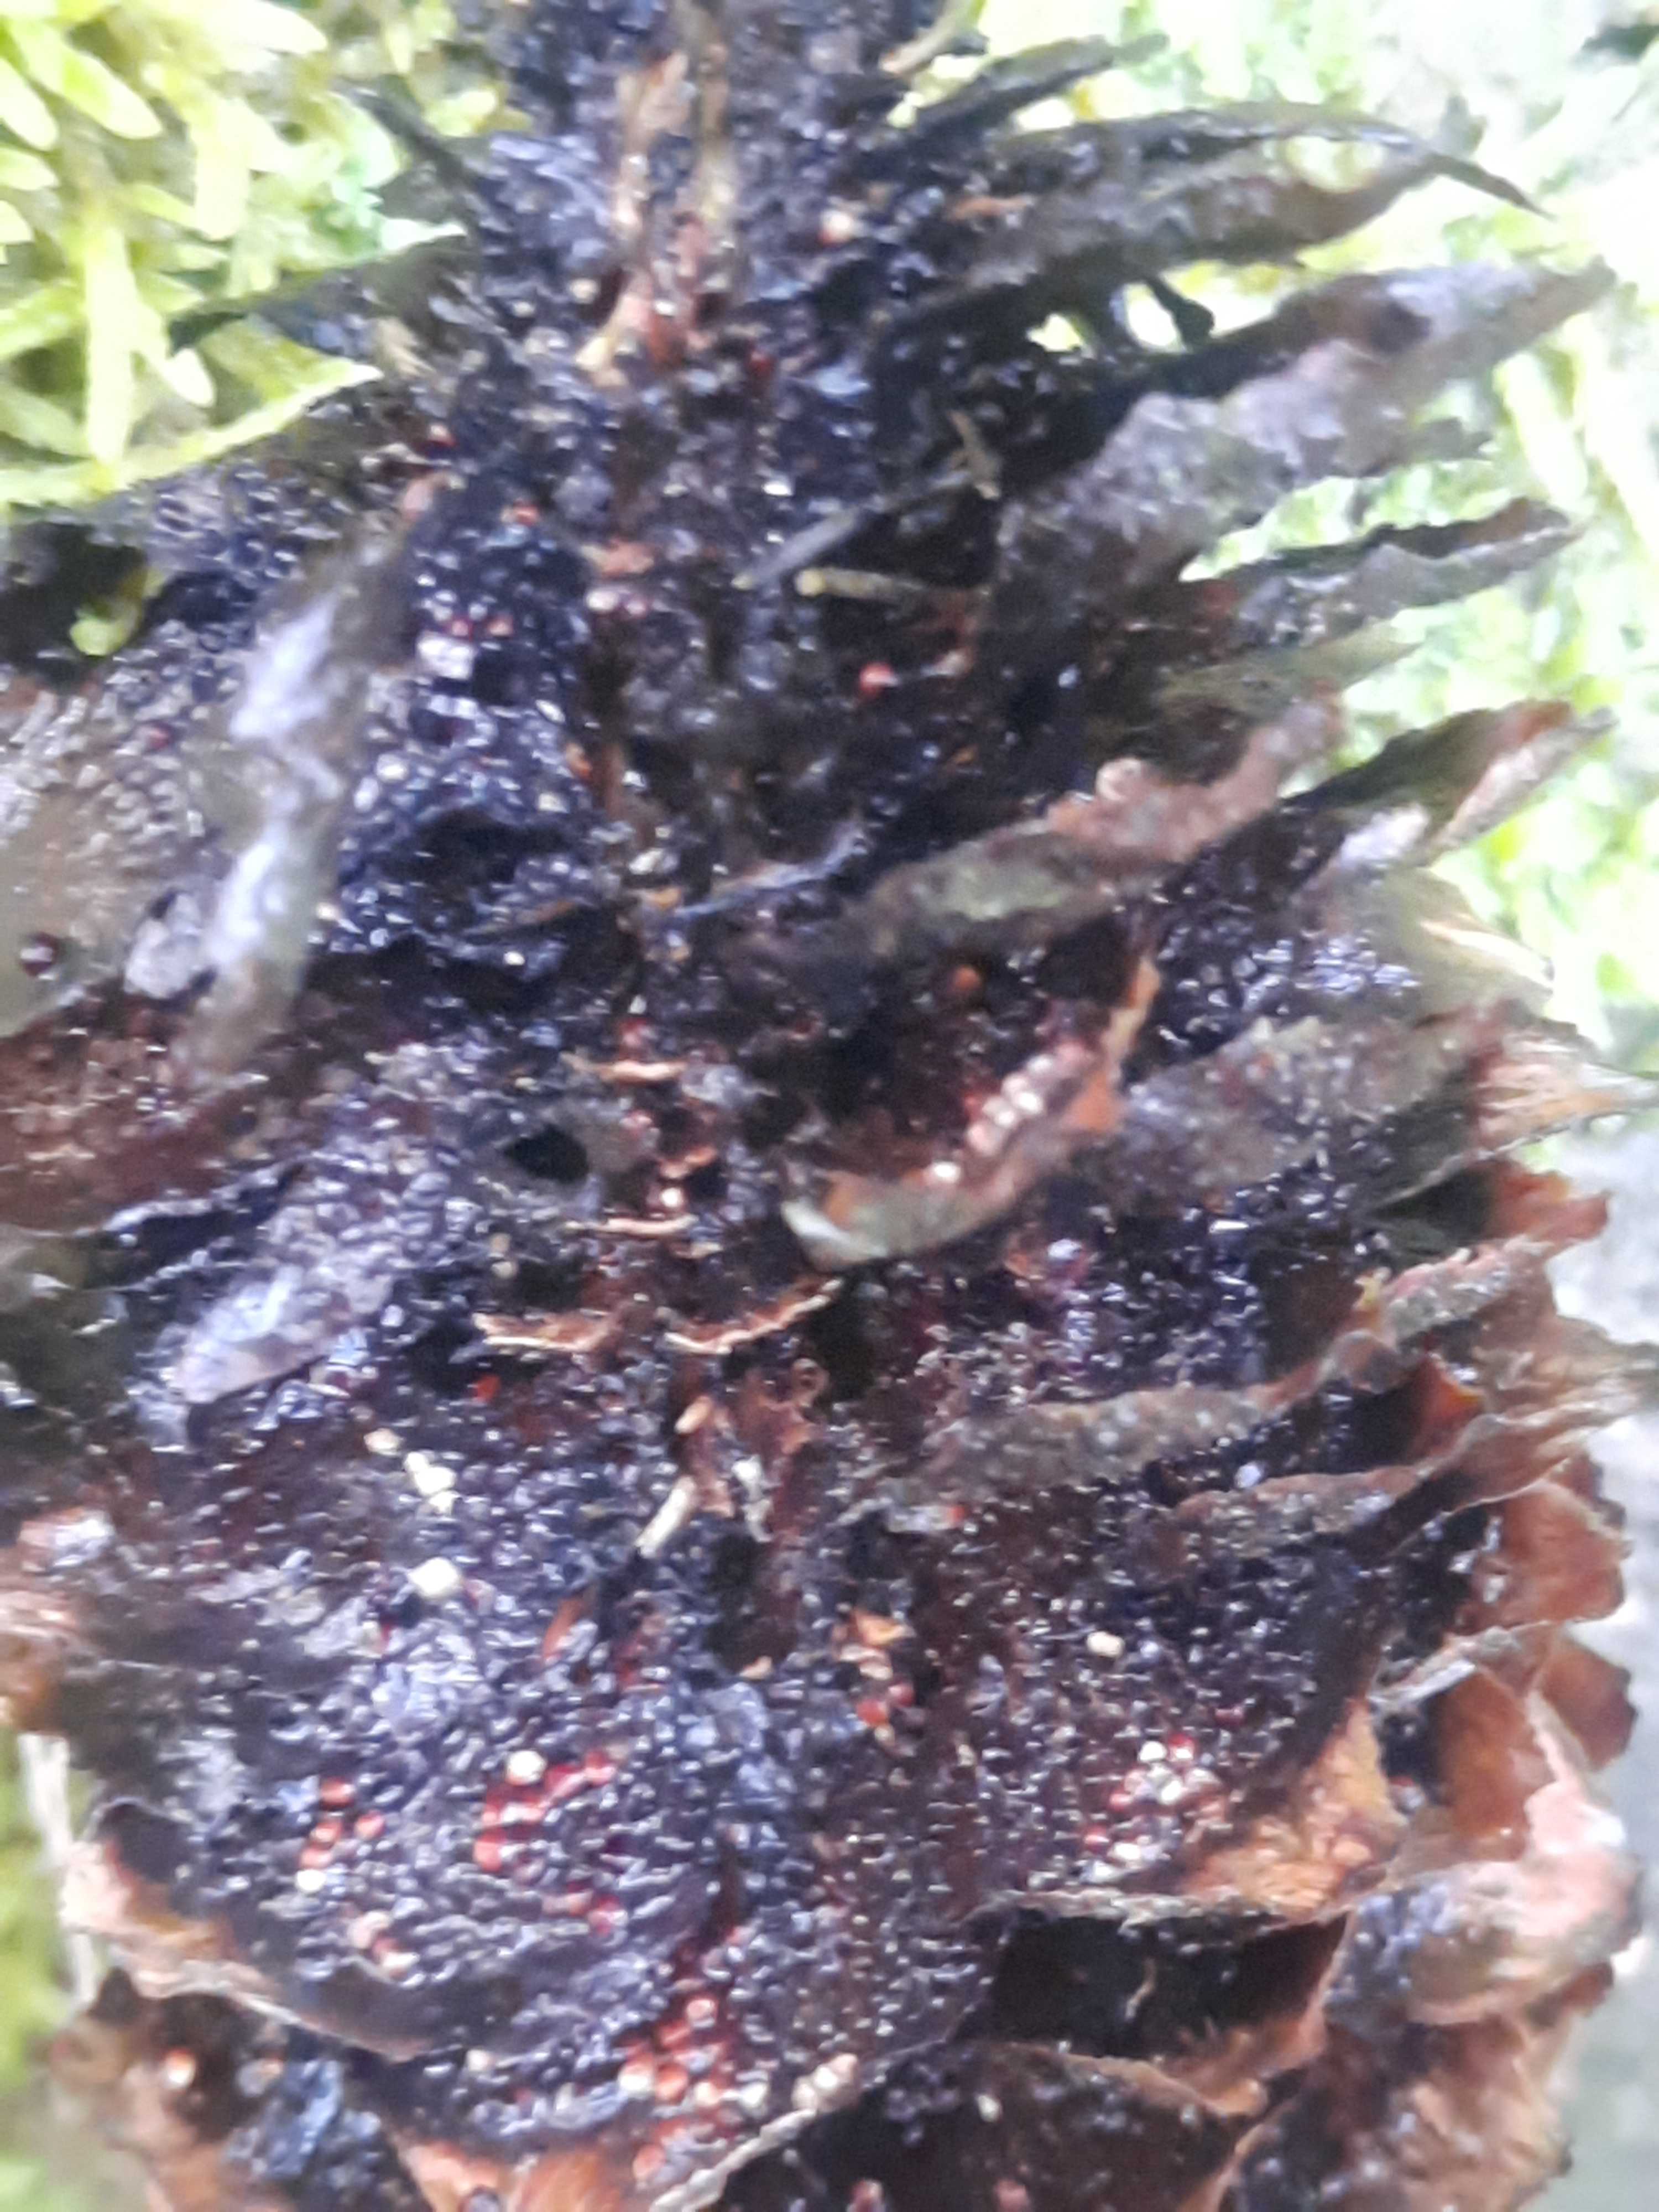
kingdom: Fungi
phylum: Basidiomycota
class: Pucciniomycetes
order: Pucciniales
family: Pucciniastraceae
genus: Thekopsora
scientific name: Thekopsora areolata
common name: grankogle-nålerust
